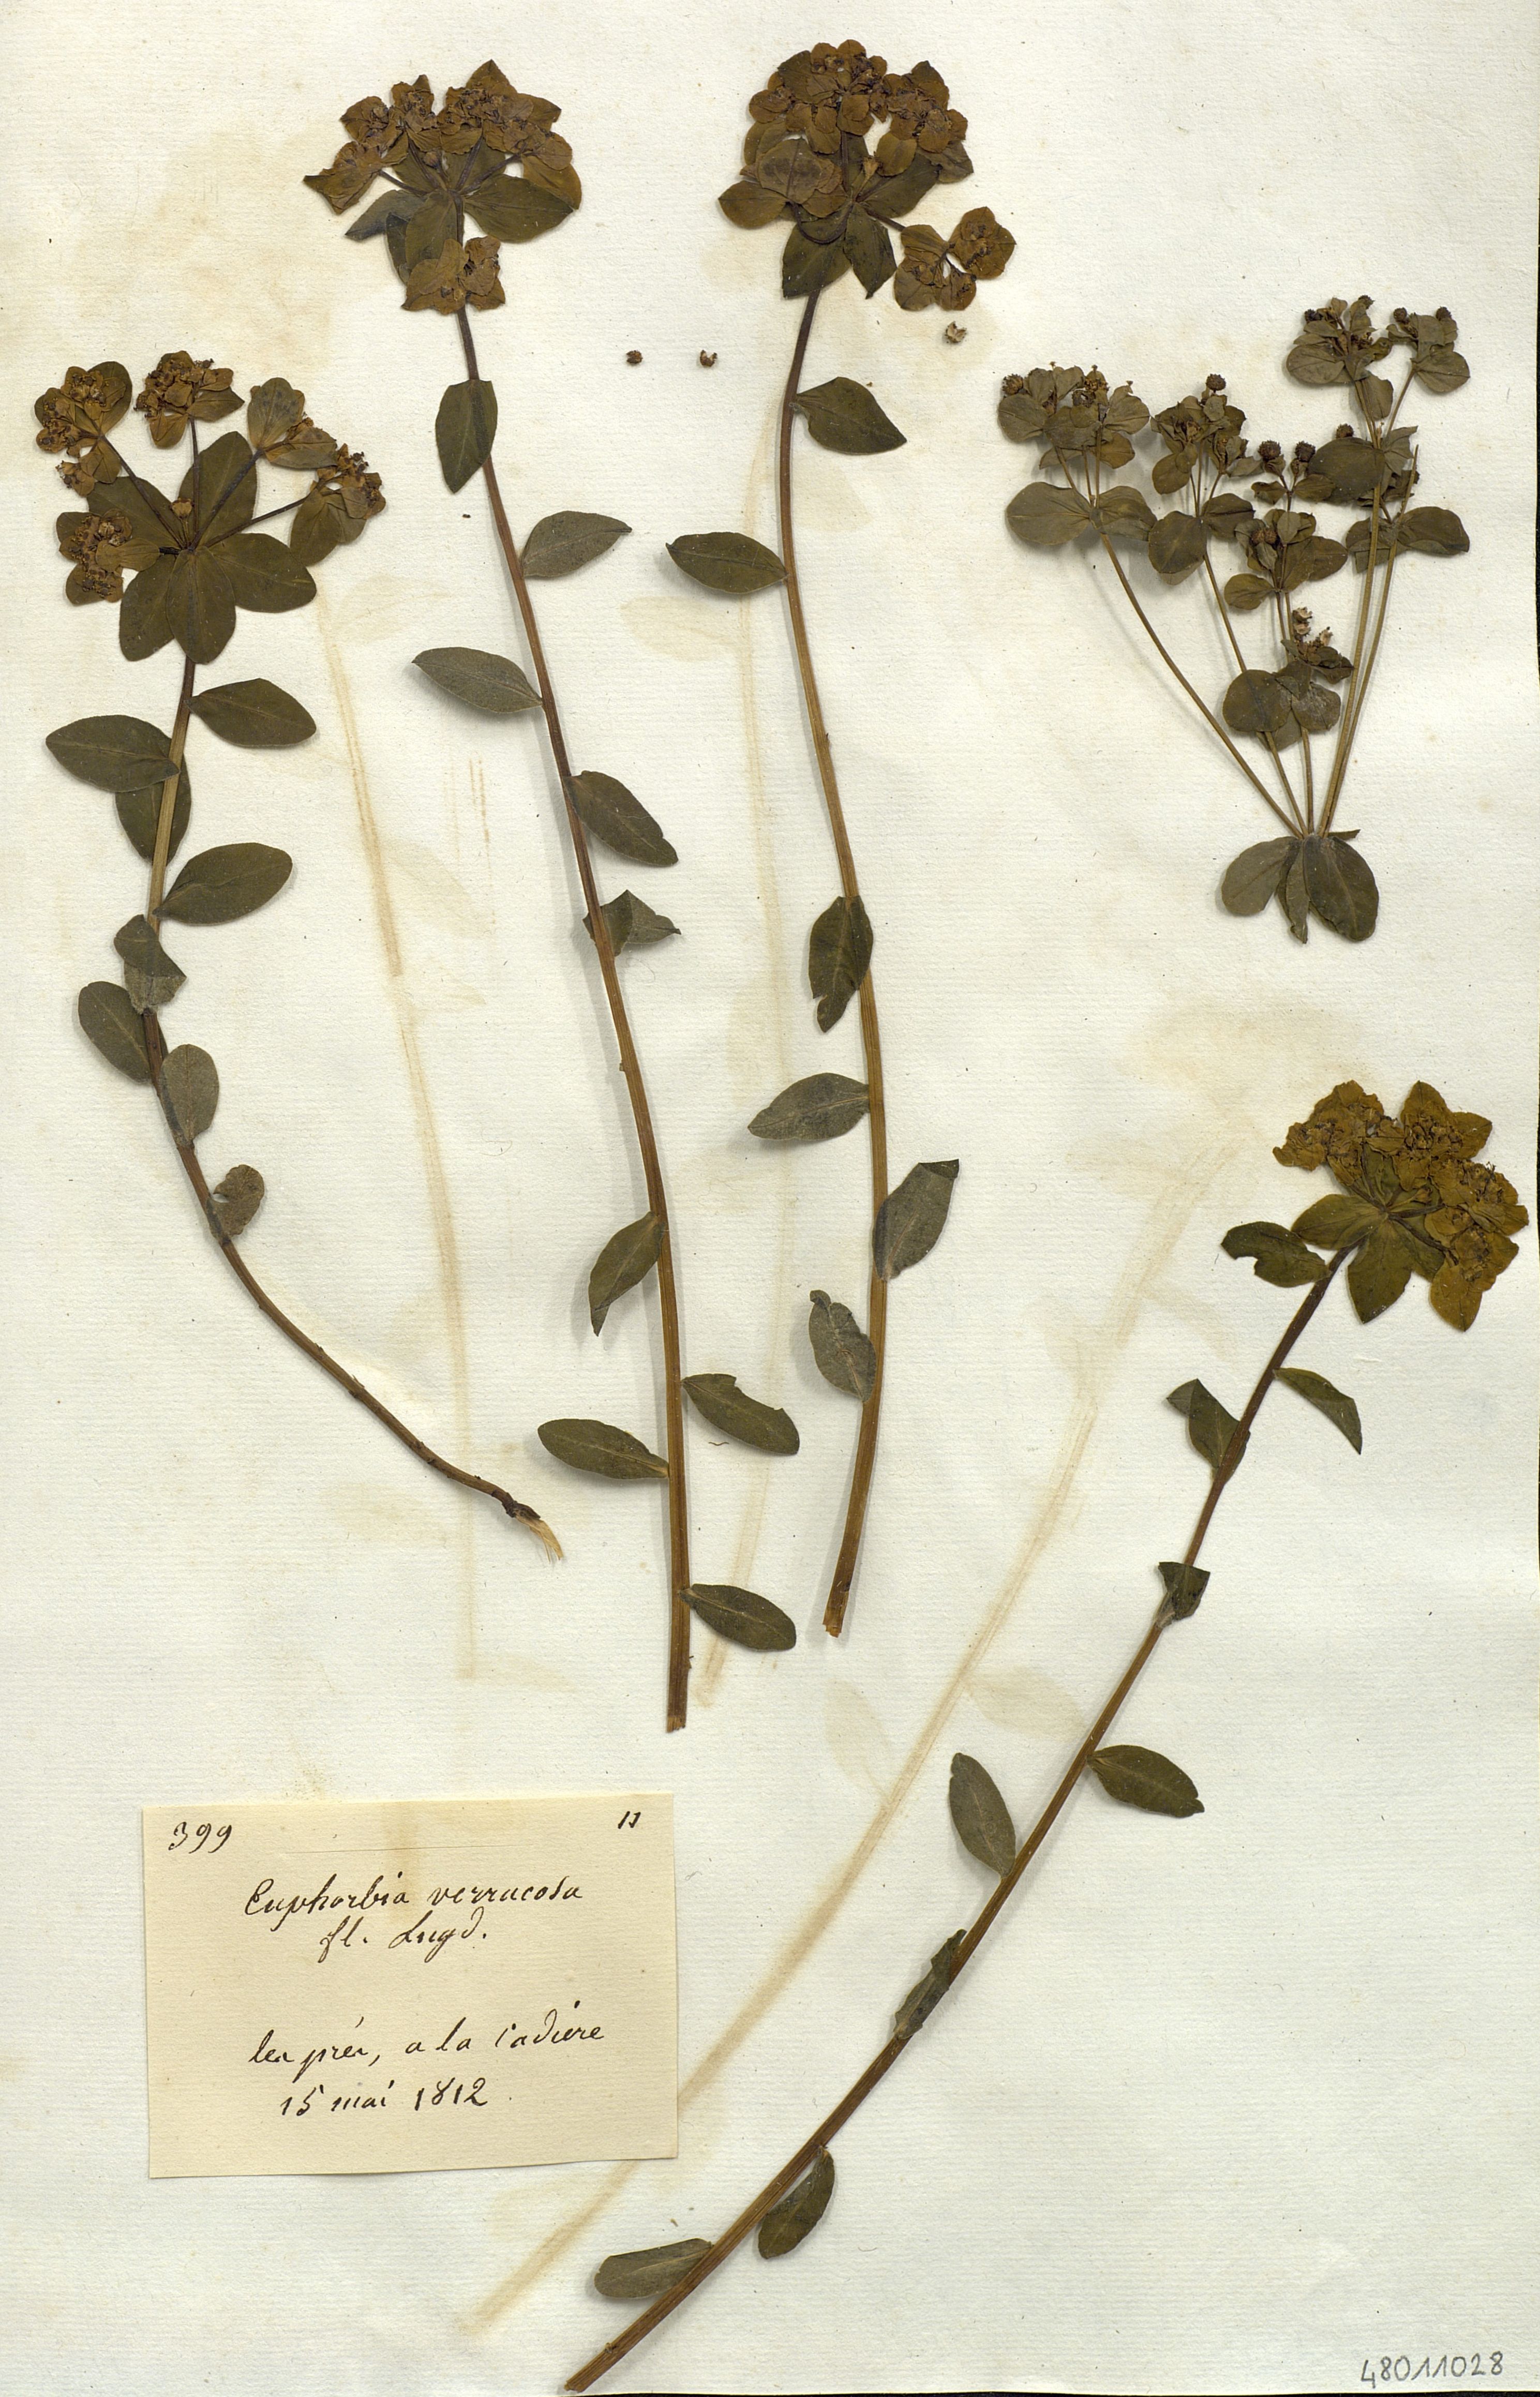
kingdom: Plantae
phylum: Tracheophyta
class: Magnoliopsida
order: Malpighiales
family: Euphorbiaceae
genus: Euphorbia
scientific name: Euphorbia verrucosa
